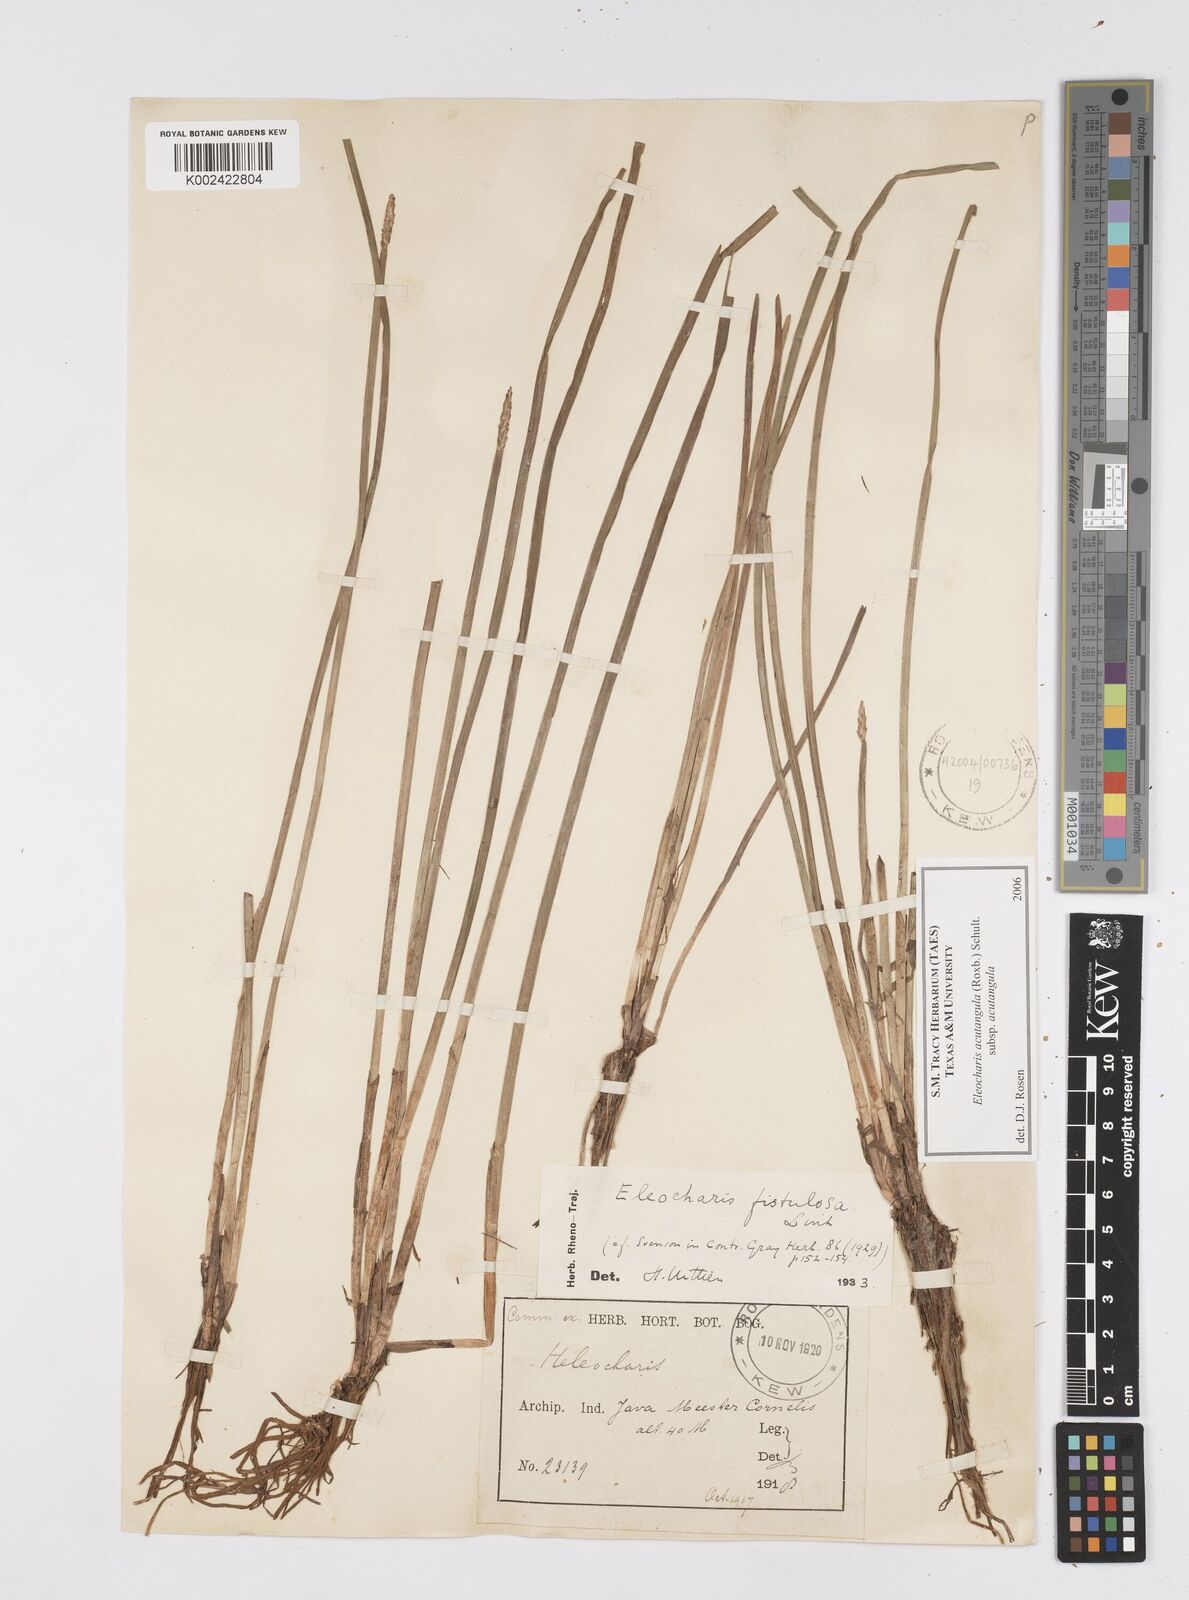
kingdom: Plantae
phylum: Tracheophyta
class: Liliopsida
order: Poales
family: Cyperaceae
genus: Eleocharis
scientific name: Eleocharis acutangula
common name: Acute spikerush
